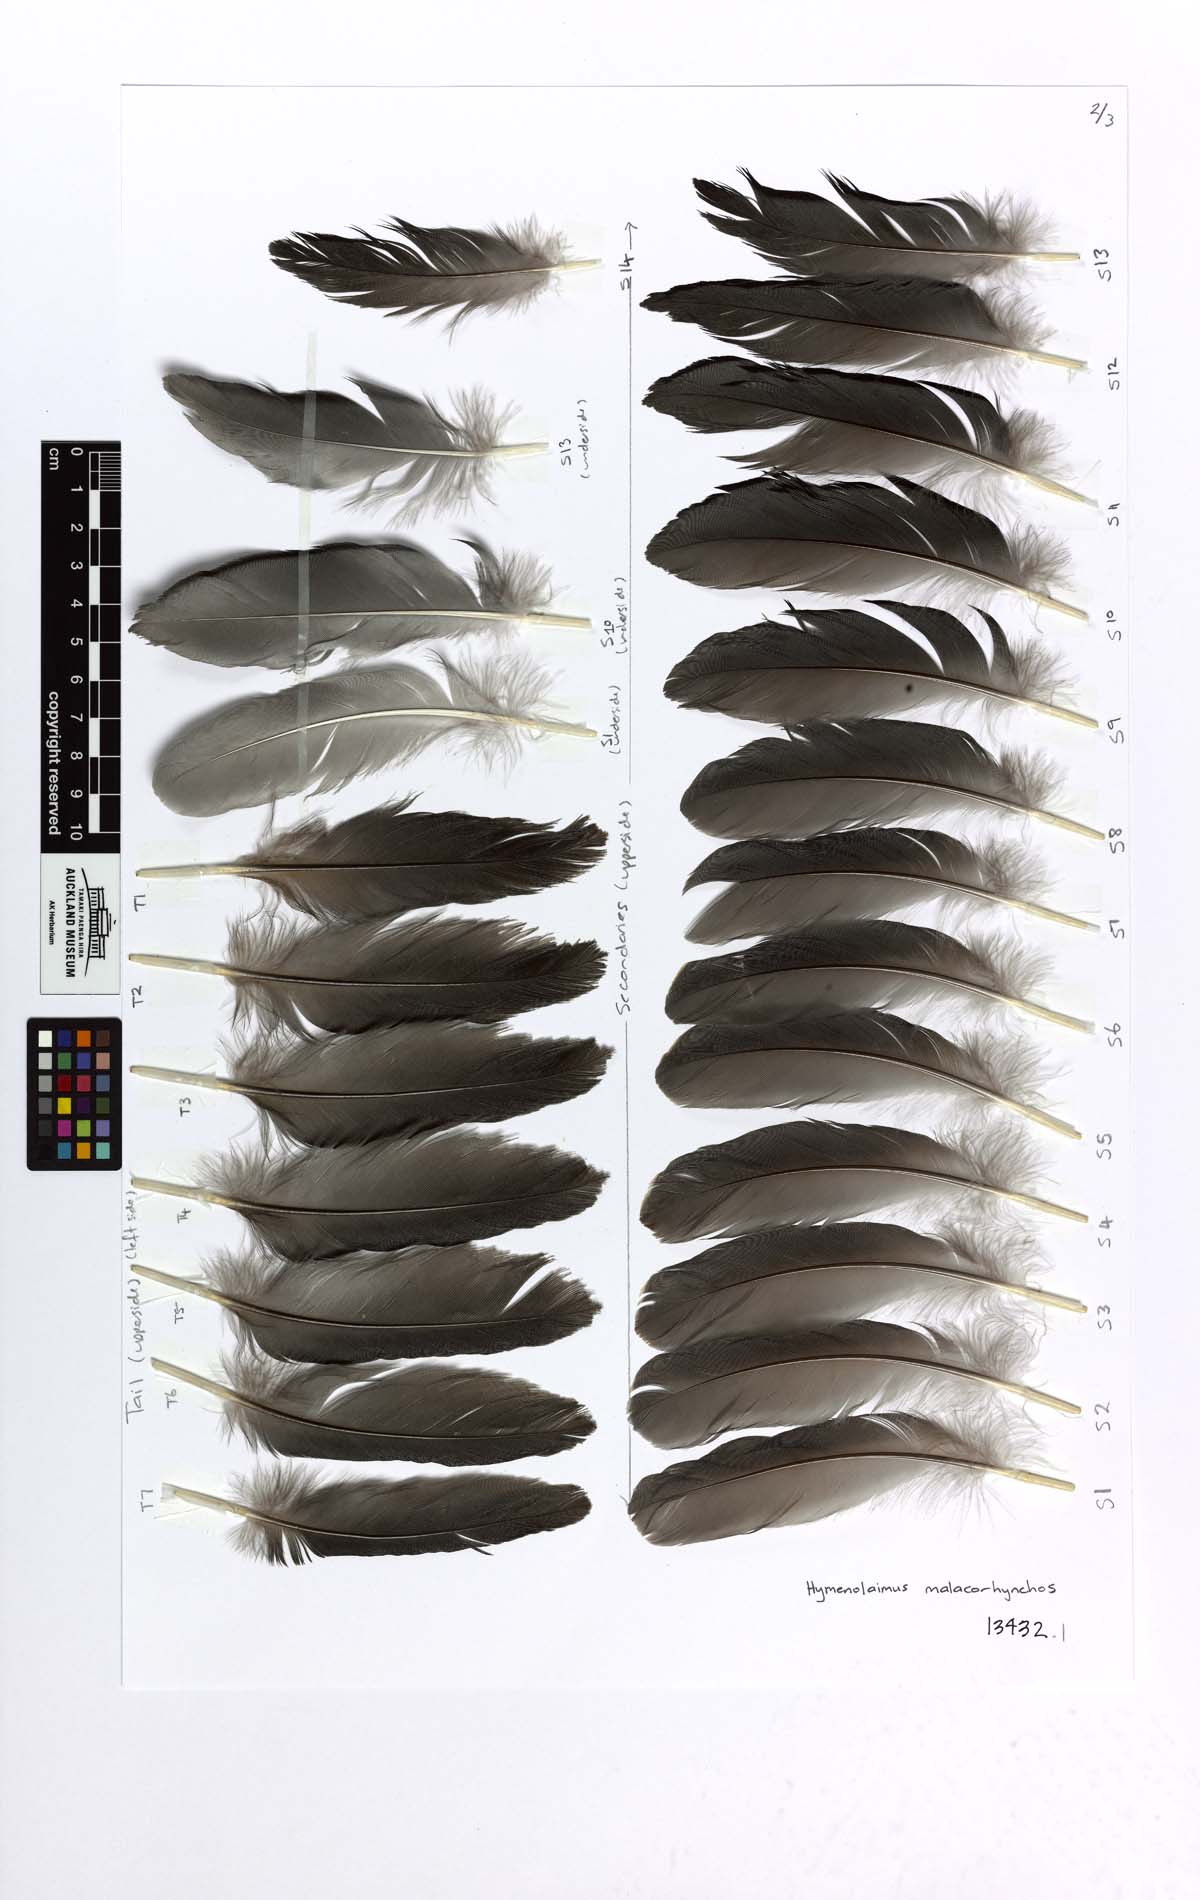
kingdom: Animalia
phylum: Chordata
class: Aves
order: Anseriformes
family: Anatidae
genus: Hymenolaimus
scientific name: Hymenolaimus malacorhynchos
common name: Blue duck
